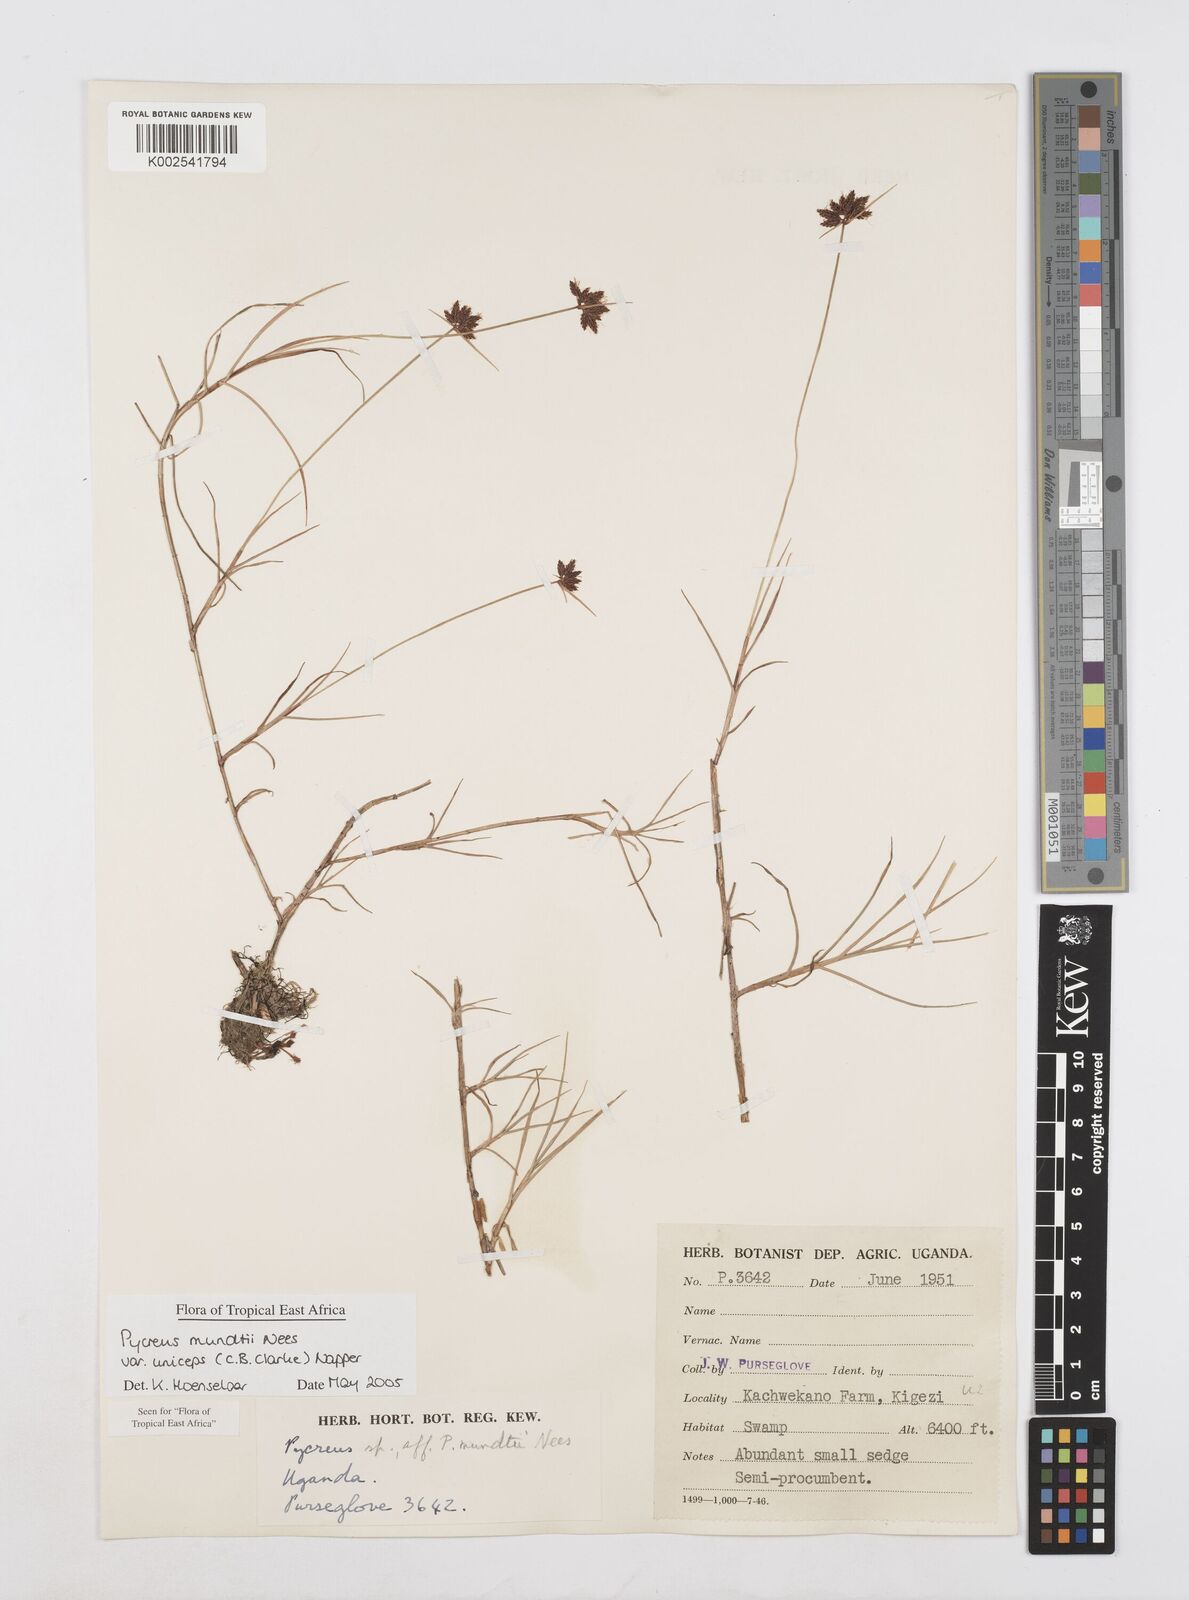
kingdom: Plantae
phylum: Tracheophyta
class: Liliopsida
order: Poales
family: Cyperaceae
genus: Cyperus
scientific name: Cyperus mundii
